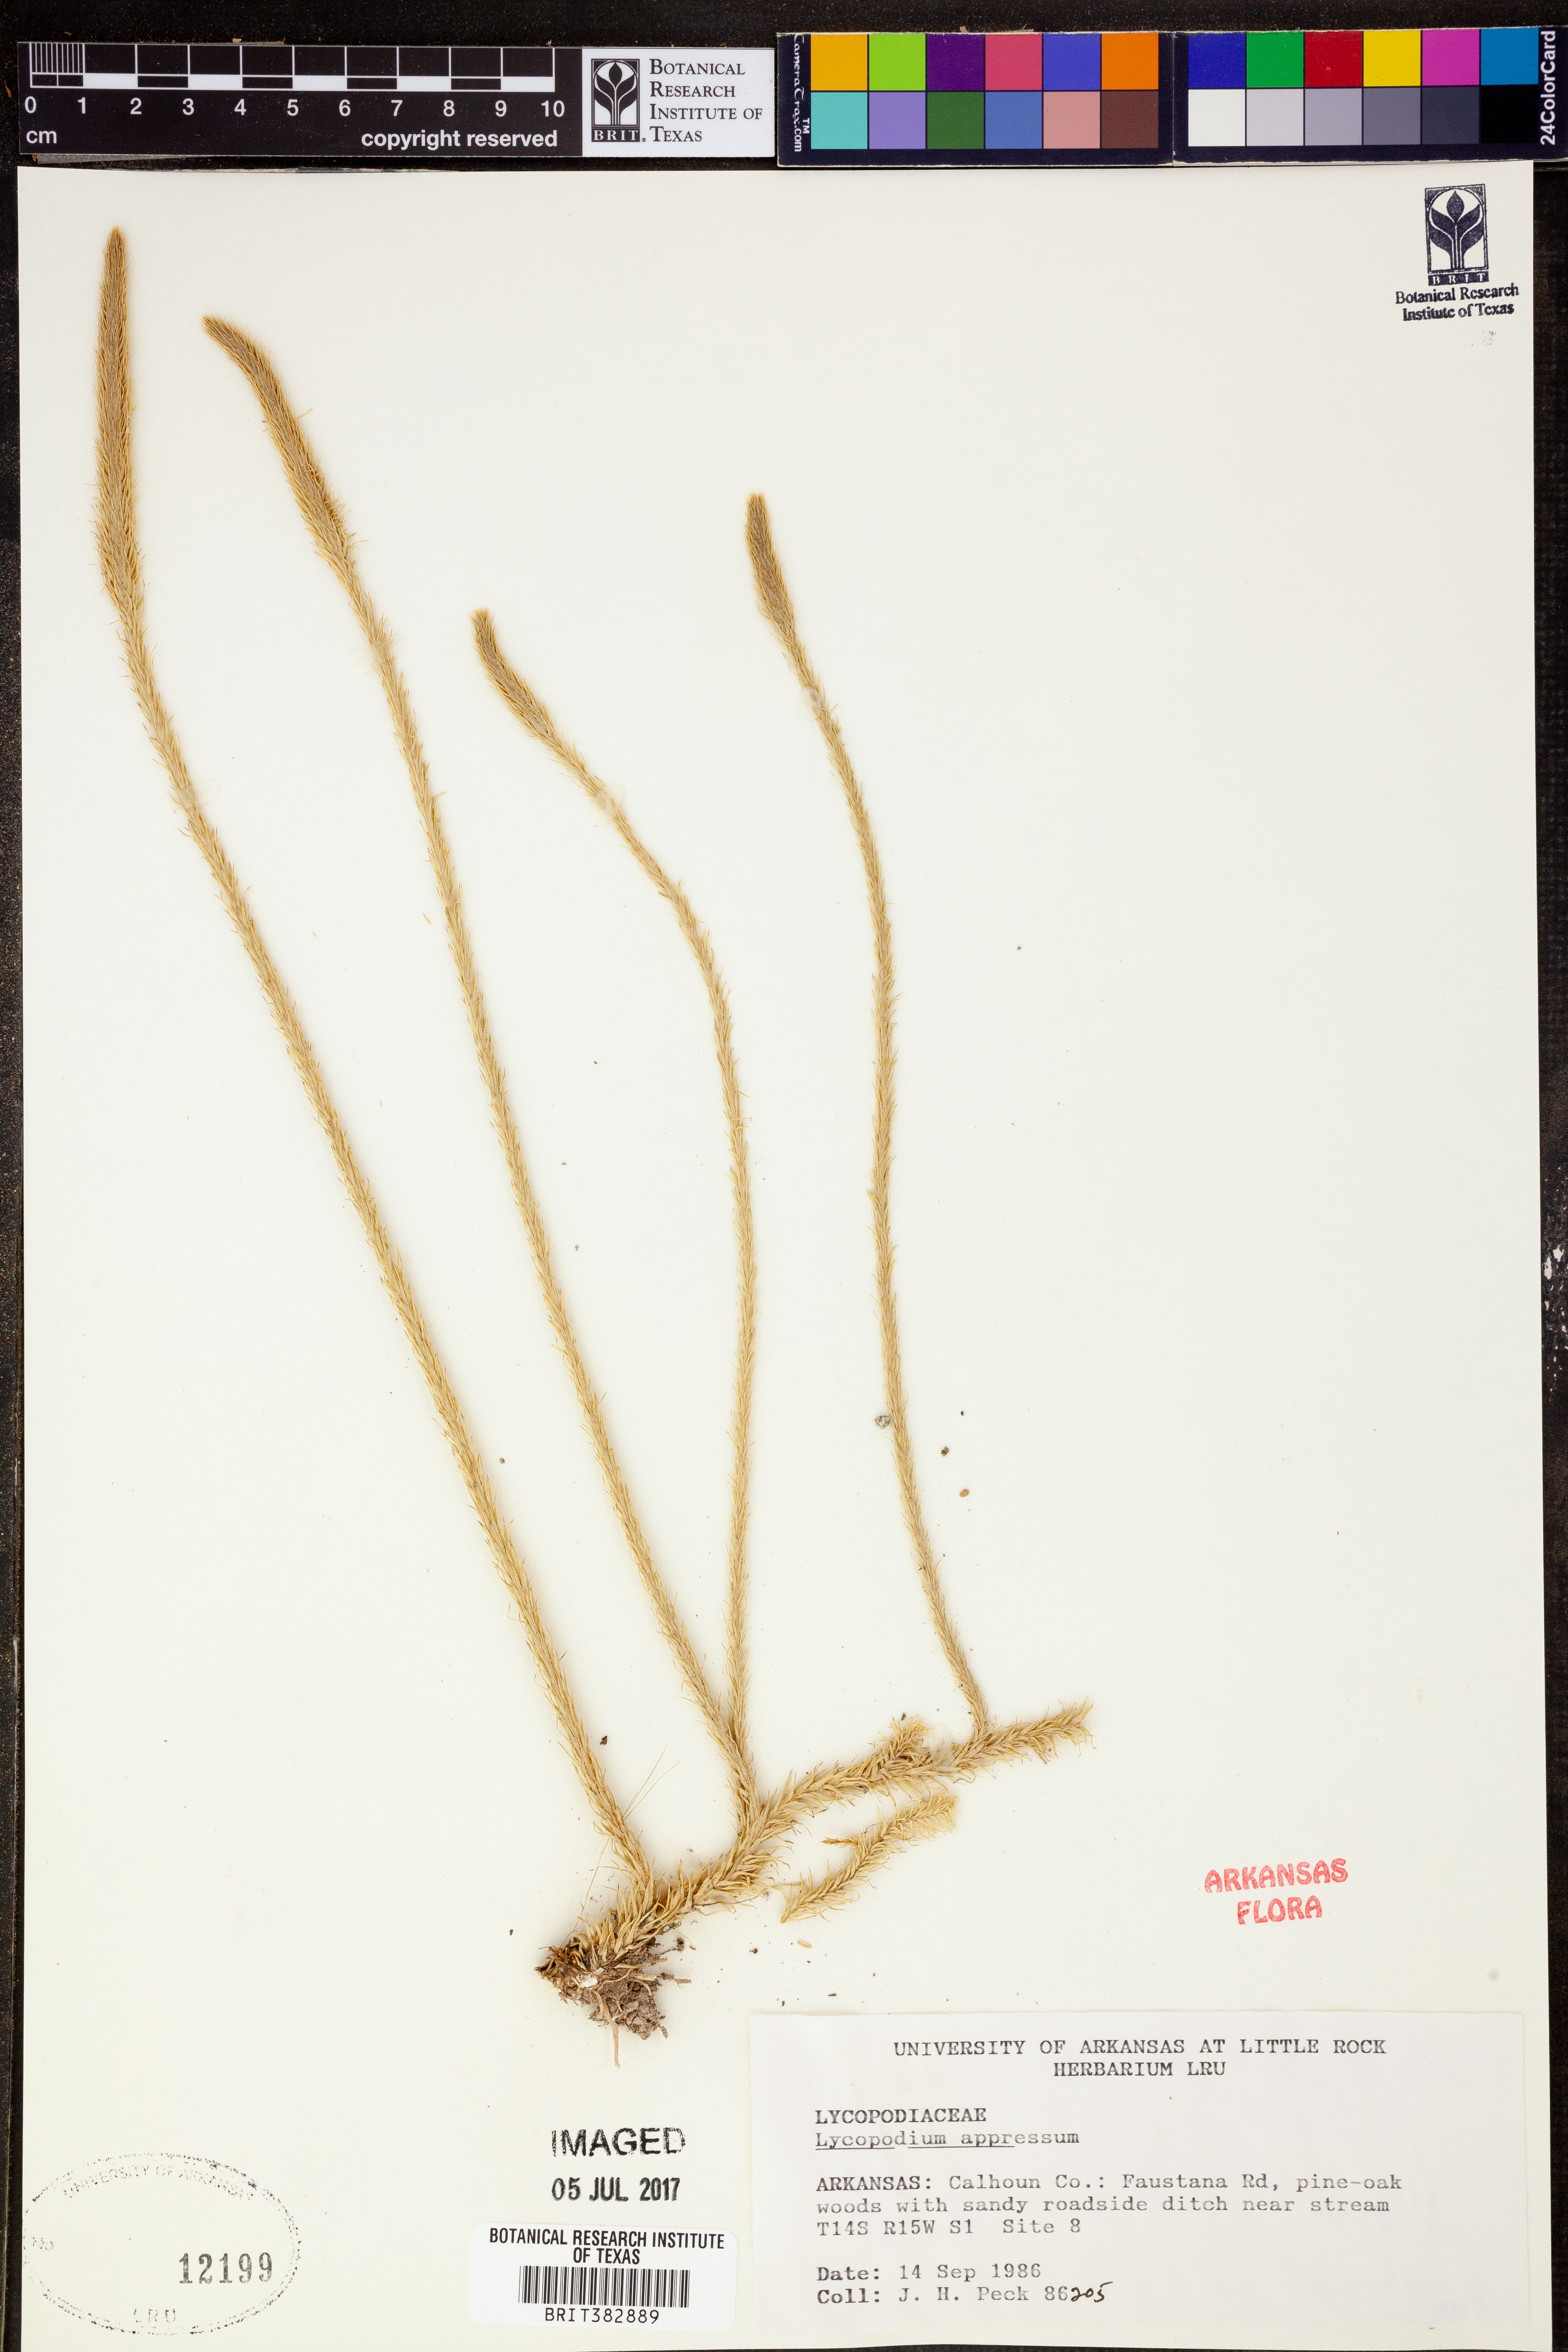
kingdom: Plantae
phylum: Tracheophyta
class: Lycopodiopsida
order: Lycopodiales
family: Lycopodiaceae
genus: Lycopodiella
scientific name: Lycopodiella appressa
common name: Appressed bog clubmoss
